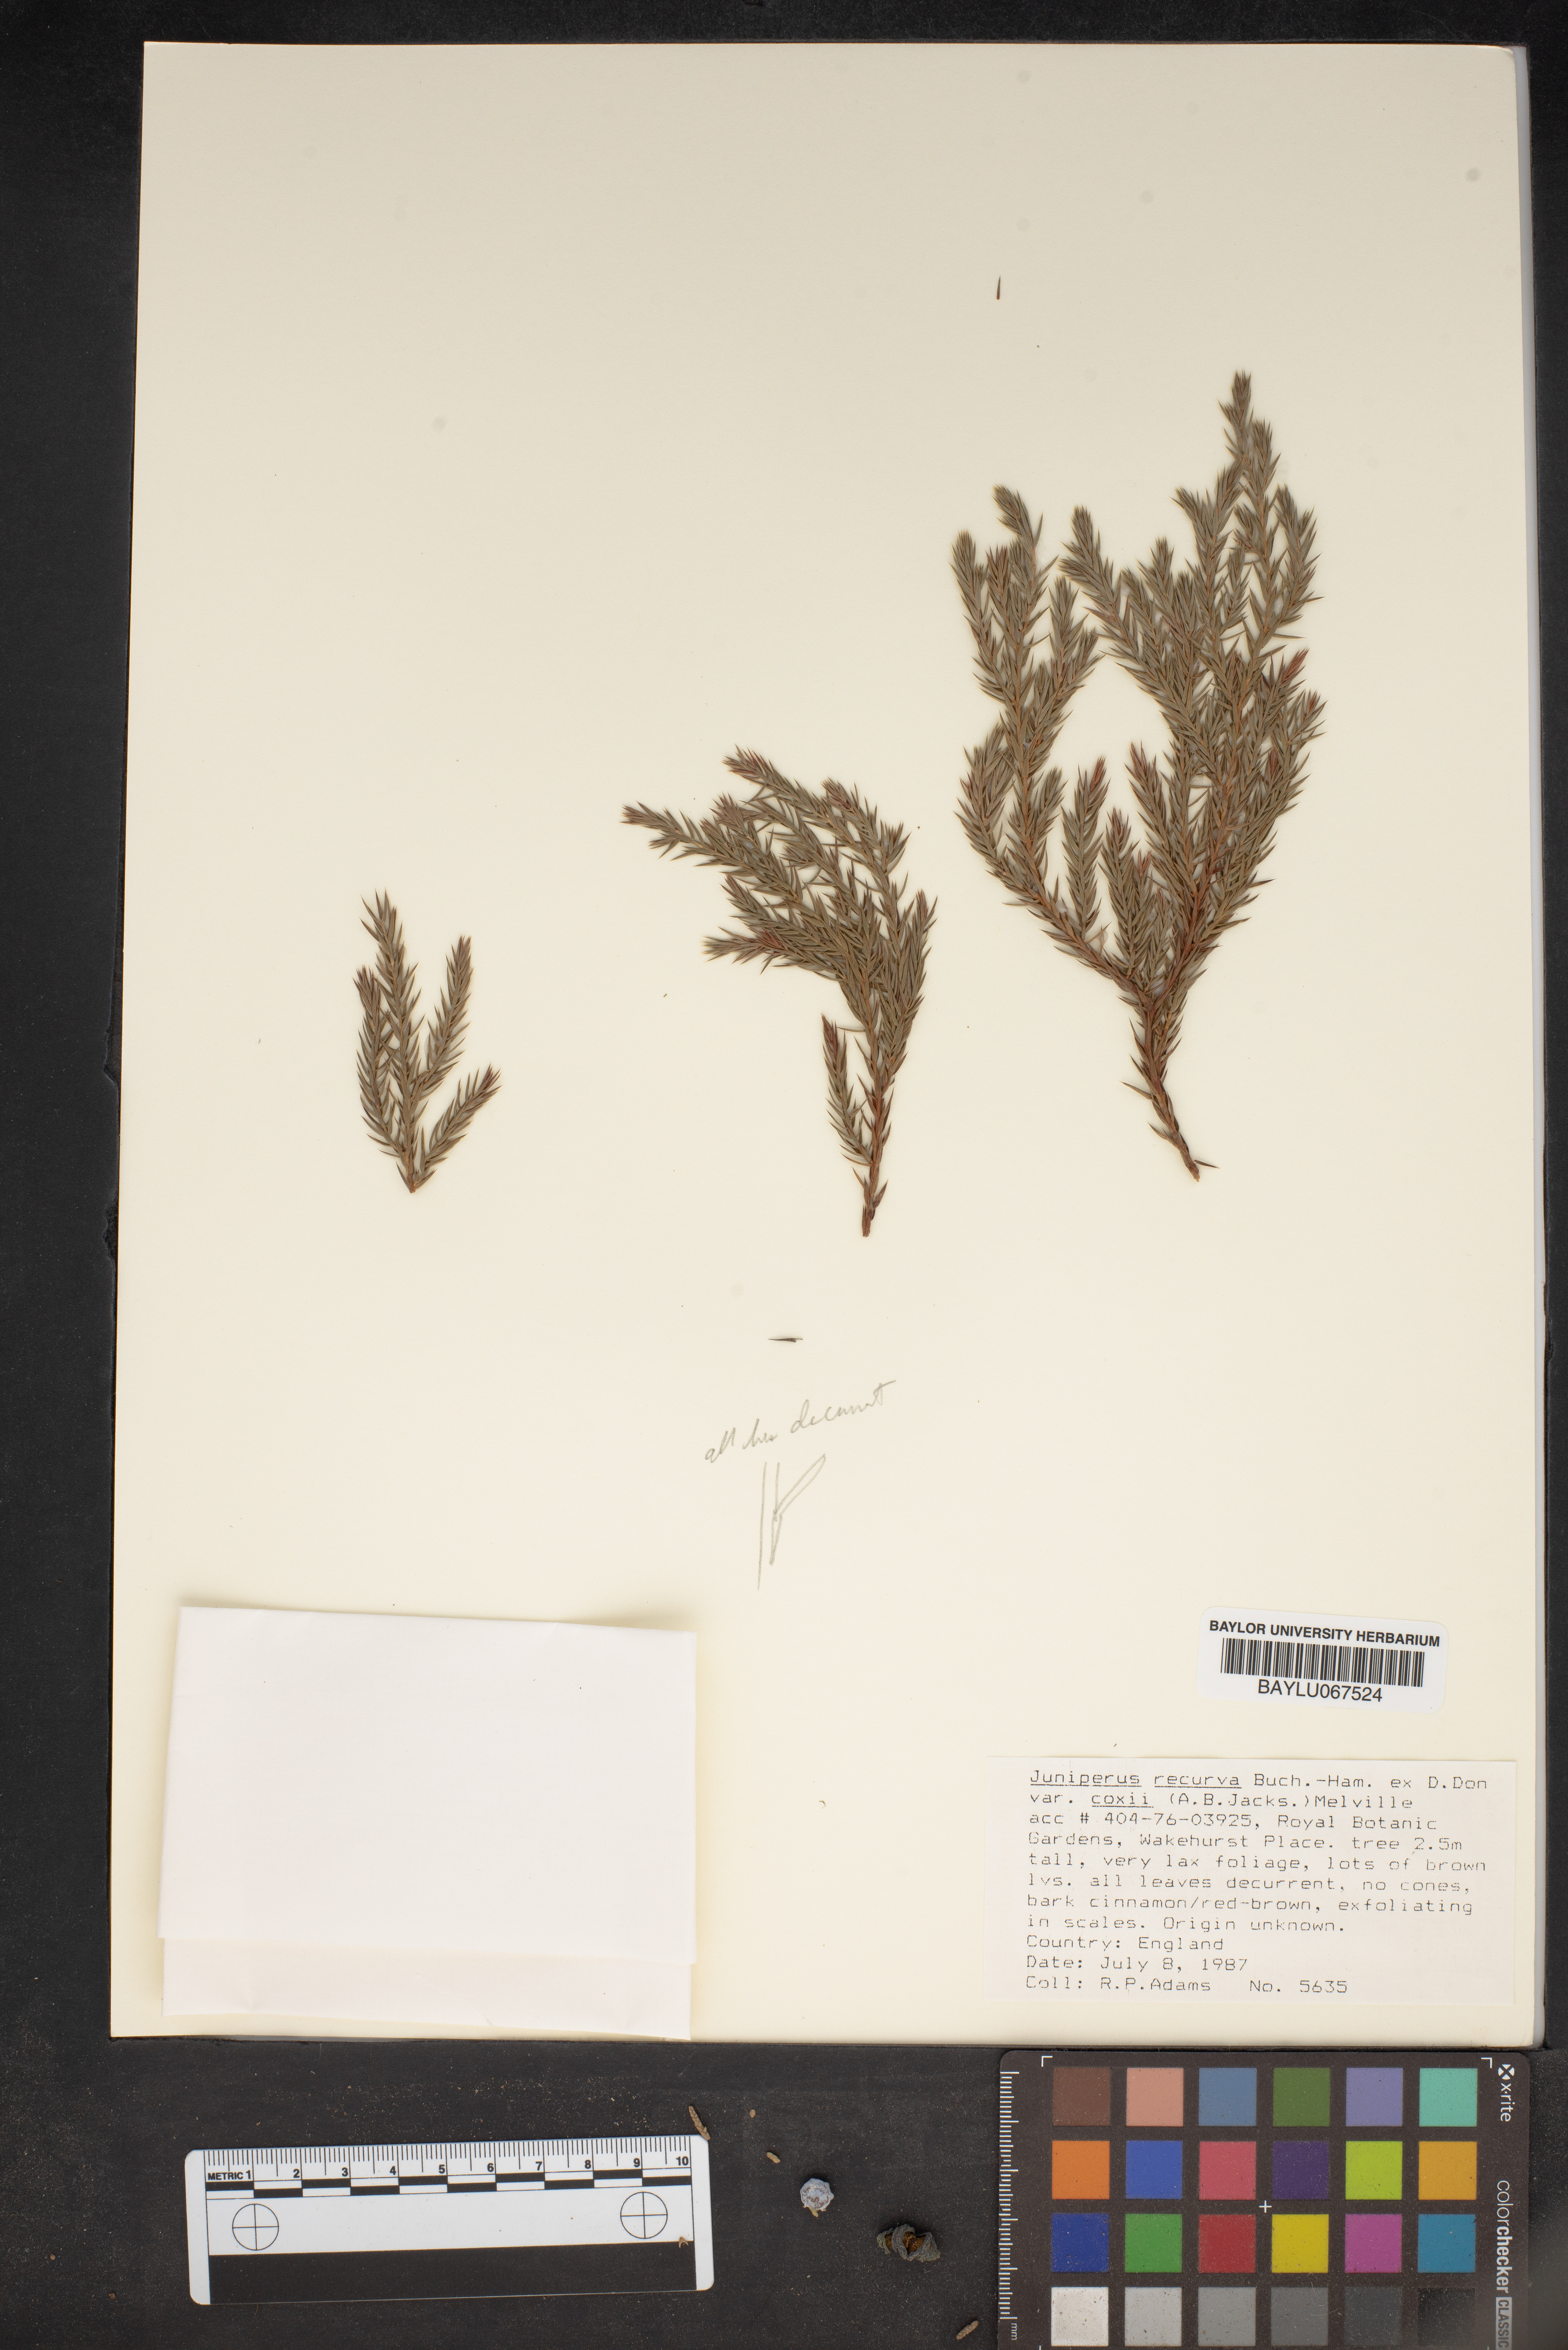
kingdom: Plantae
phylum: Tracheophyta
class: Pinopsida
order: Pinales
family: Cupressaceae
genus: Juniperus
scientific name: Juniperus recurva
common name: Drooping juniper
